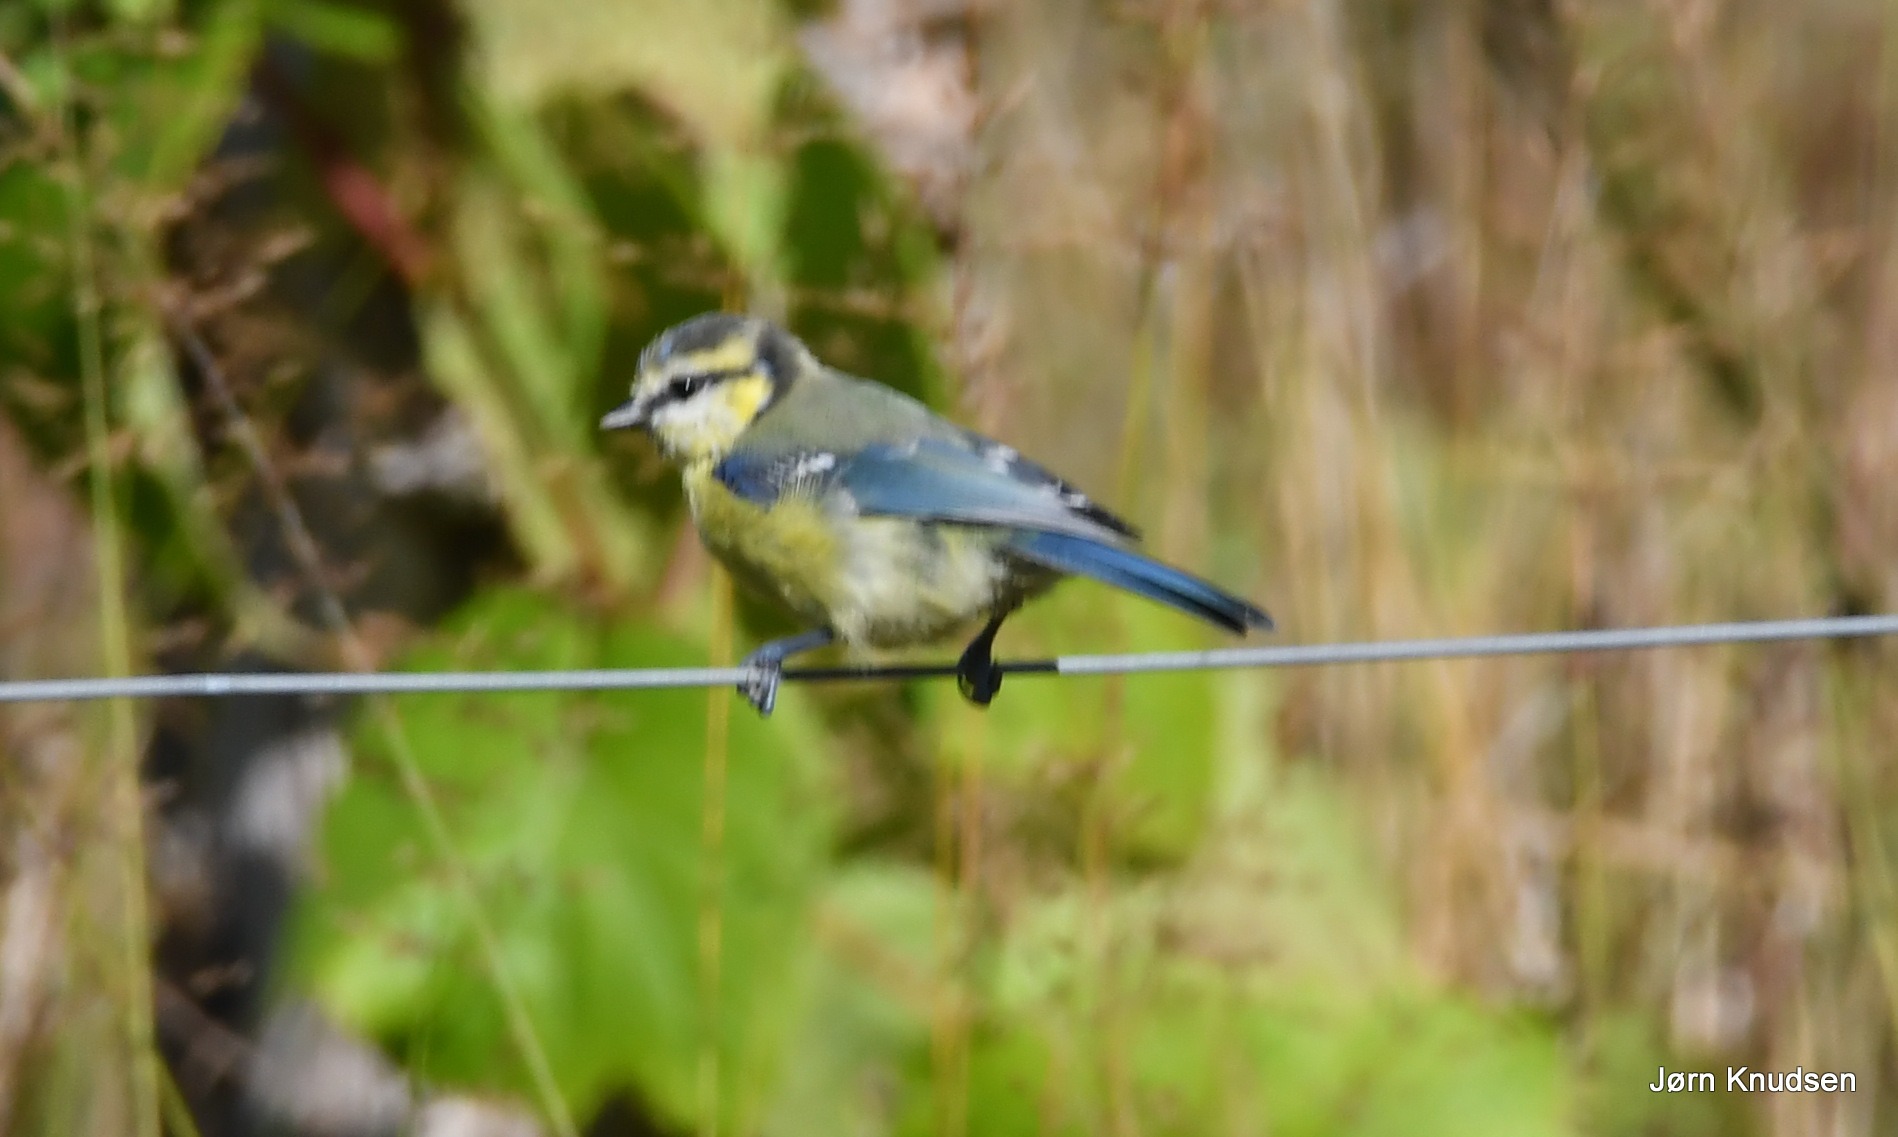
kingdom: Animalia
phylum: Chordata
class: Aves
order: Passeriformes
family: Paridae
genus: Cyanistes
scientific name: Cyanistes caeruleus
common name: Blåmejse
